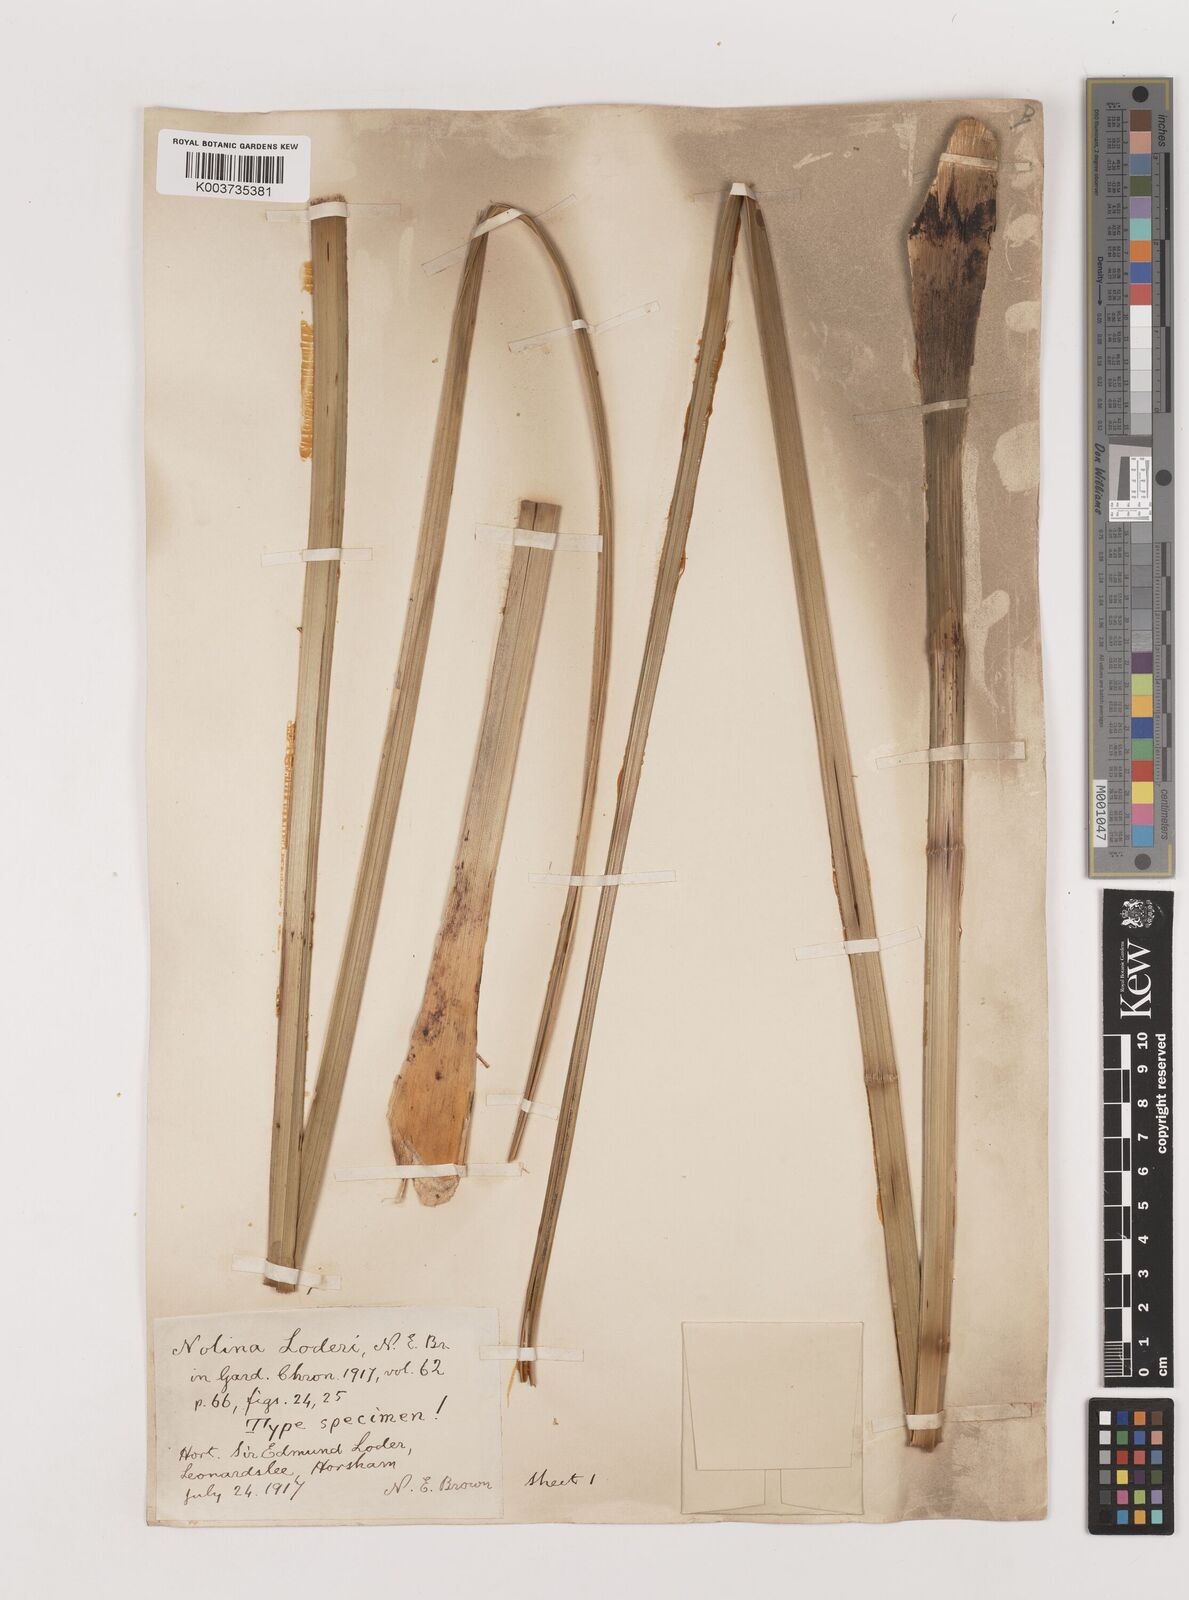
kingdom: Plantae
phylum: Tracheophyta
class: Liliopsida
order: Asparagales
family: Asparagaceae
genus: Nolina
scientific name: Nolina loderi
